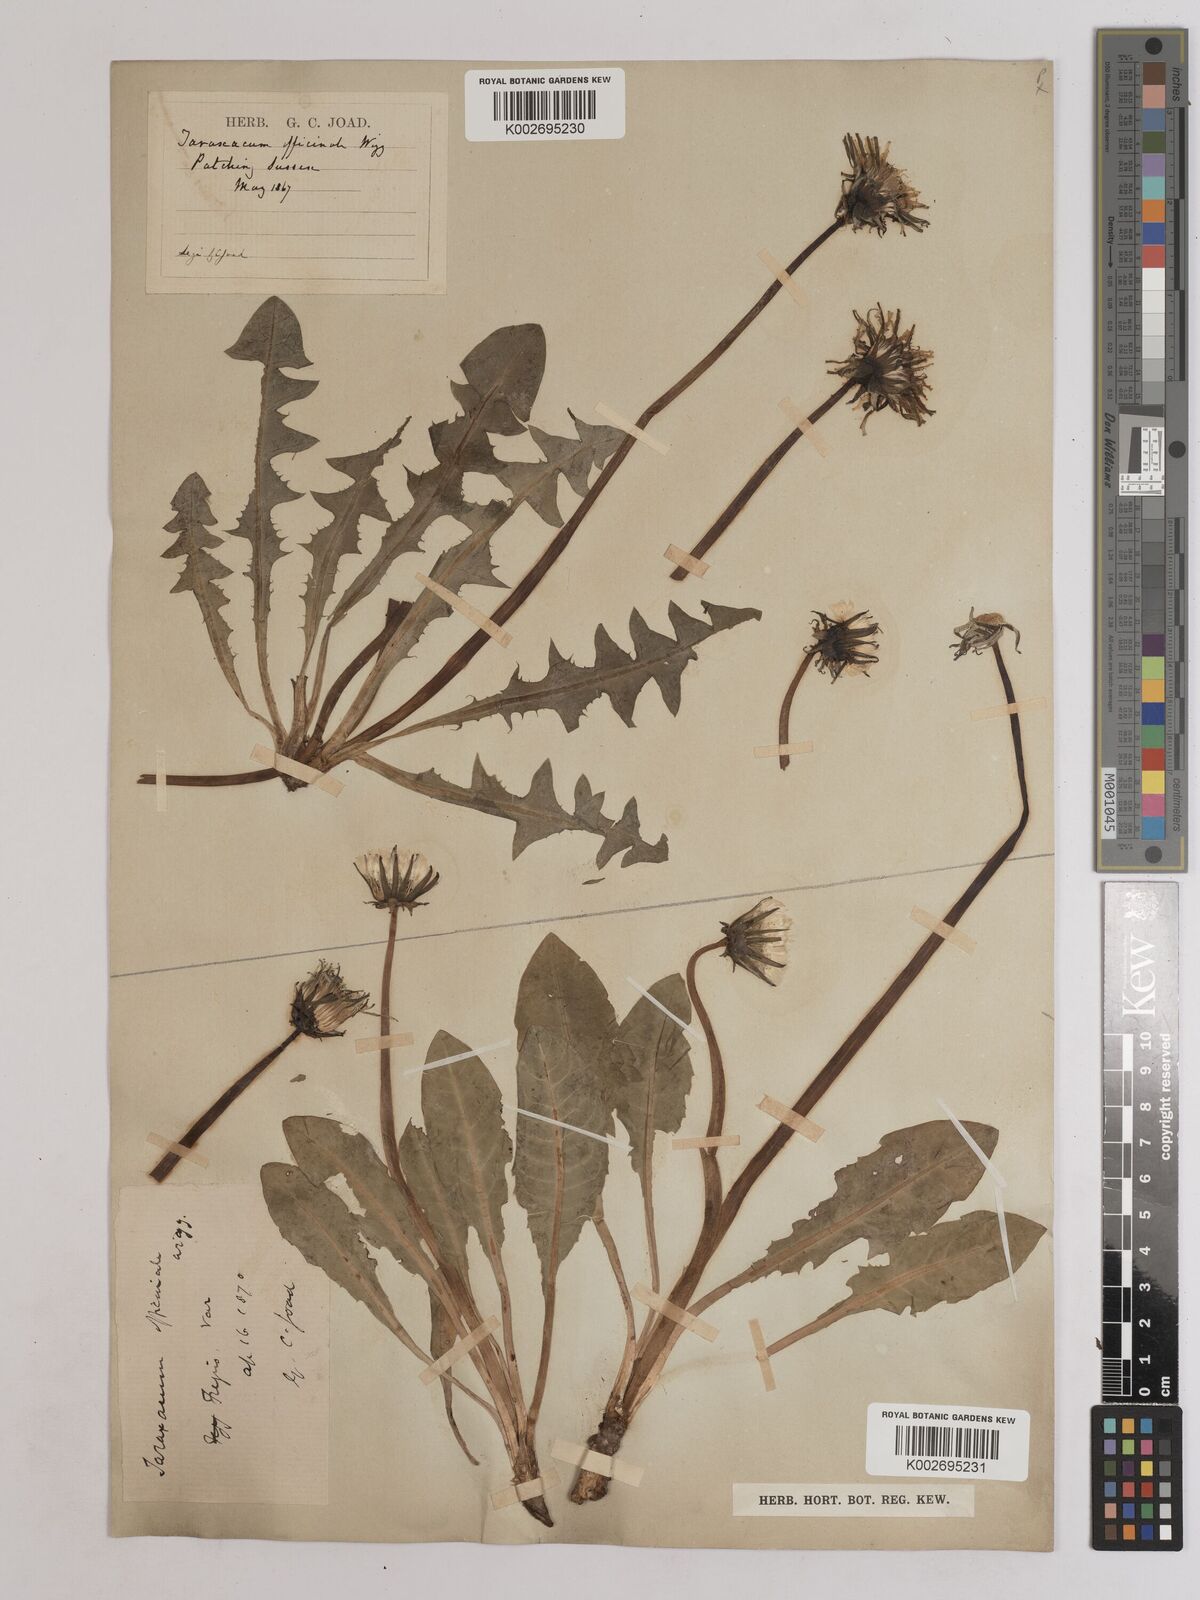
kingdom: Plantae
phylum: Tracheophyta
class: Magnoliopsida
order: Asterales
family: Asteraceae
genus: Taraxacum
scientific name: Taraxacum officinale
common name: Common dandelion
